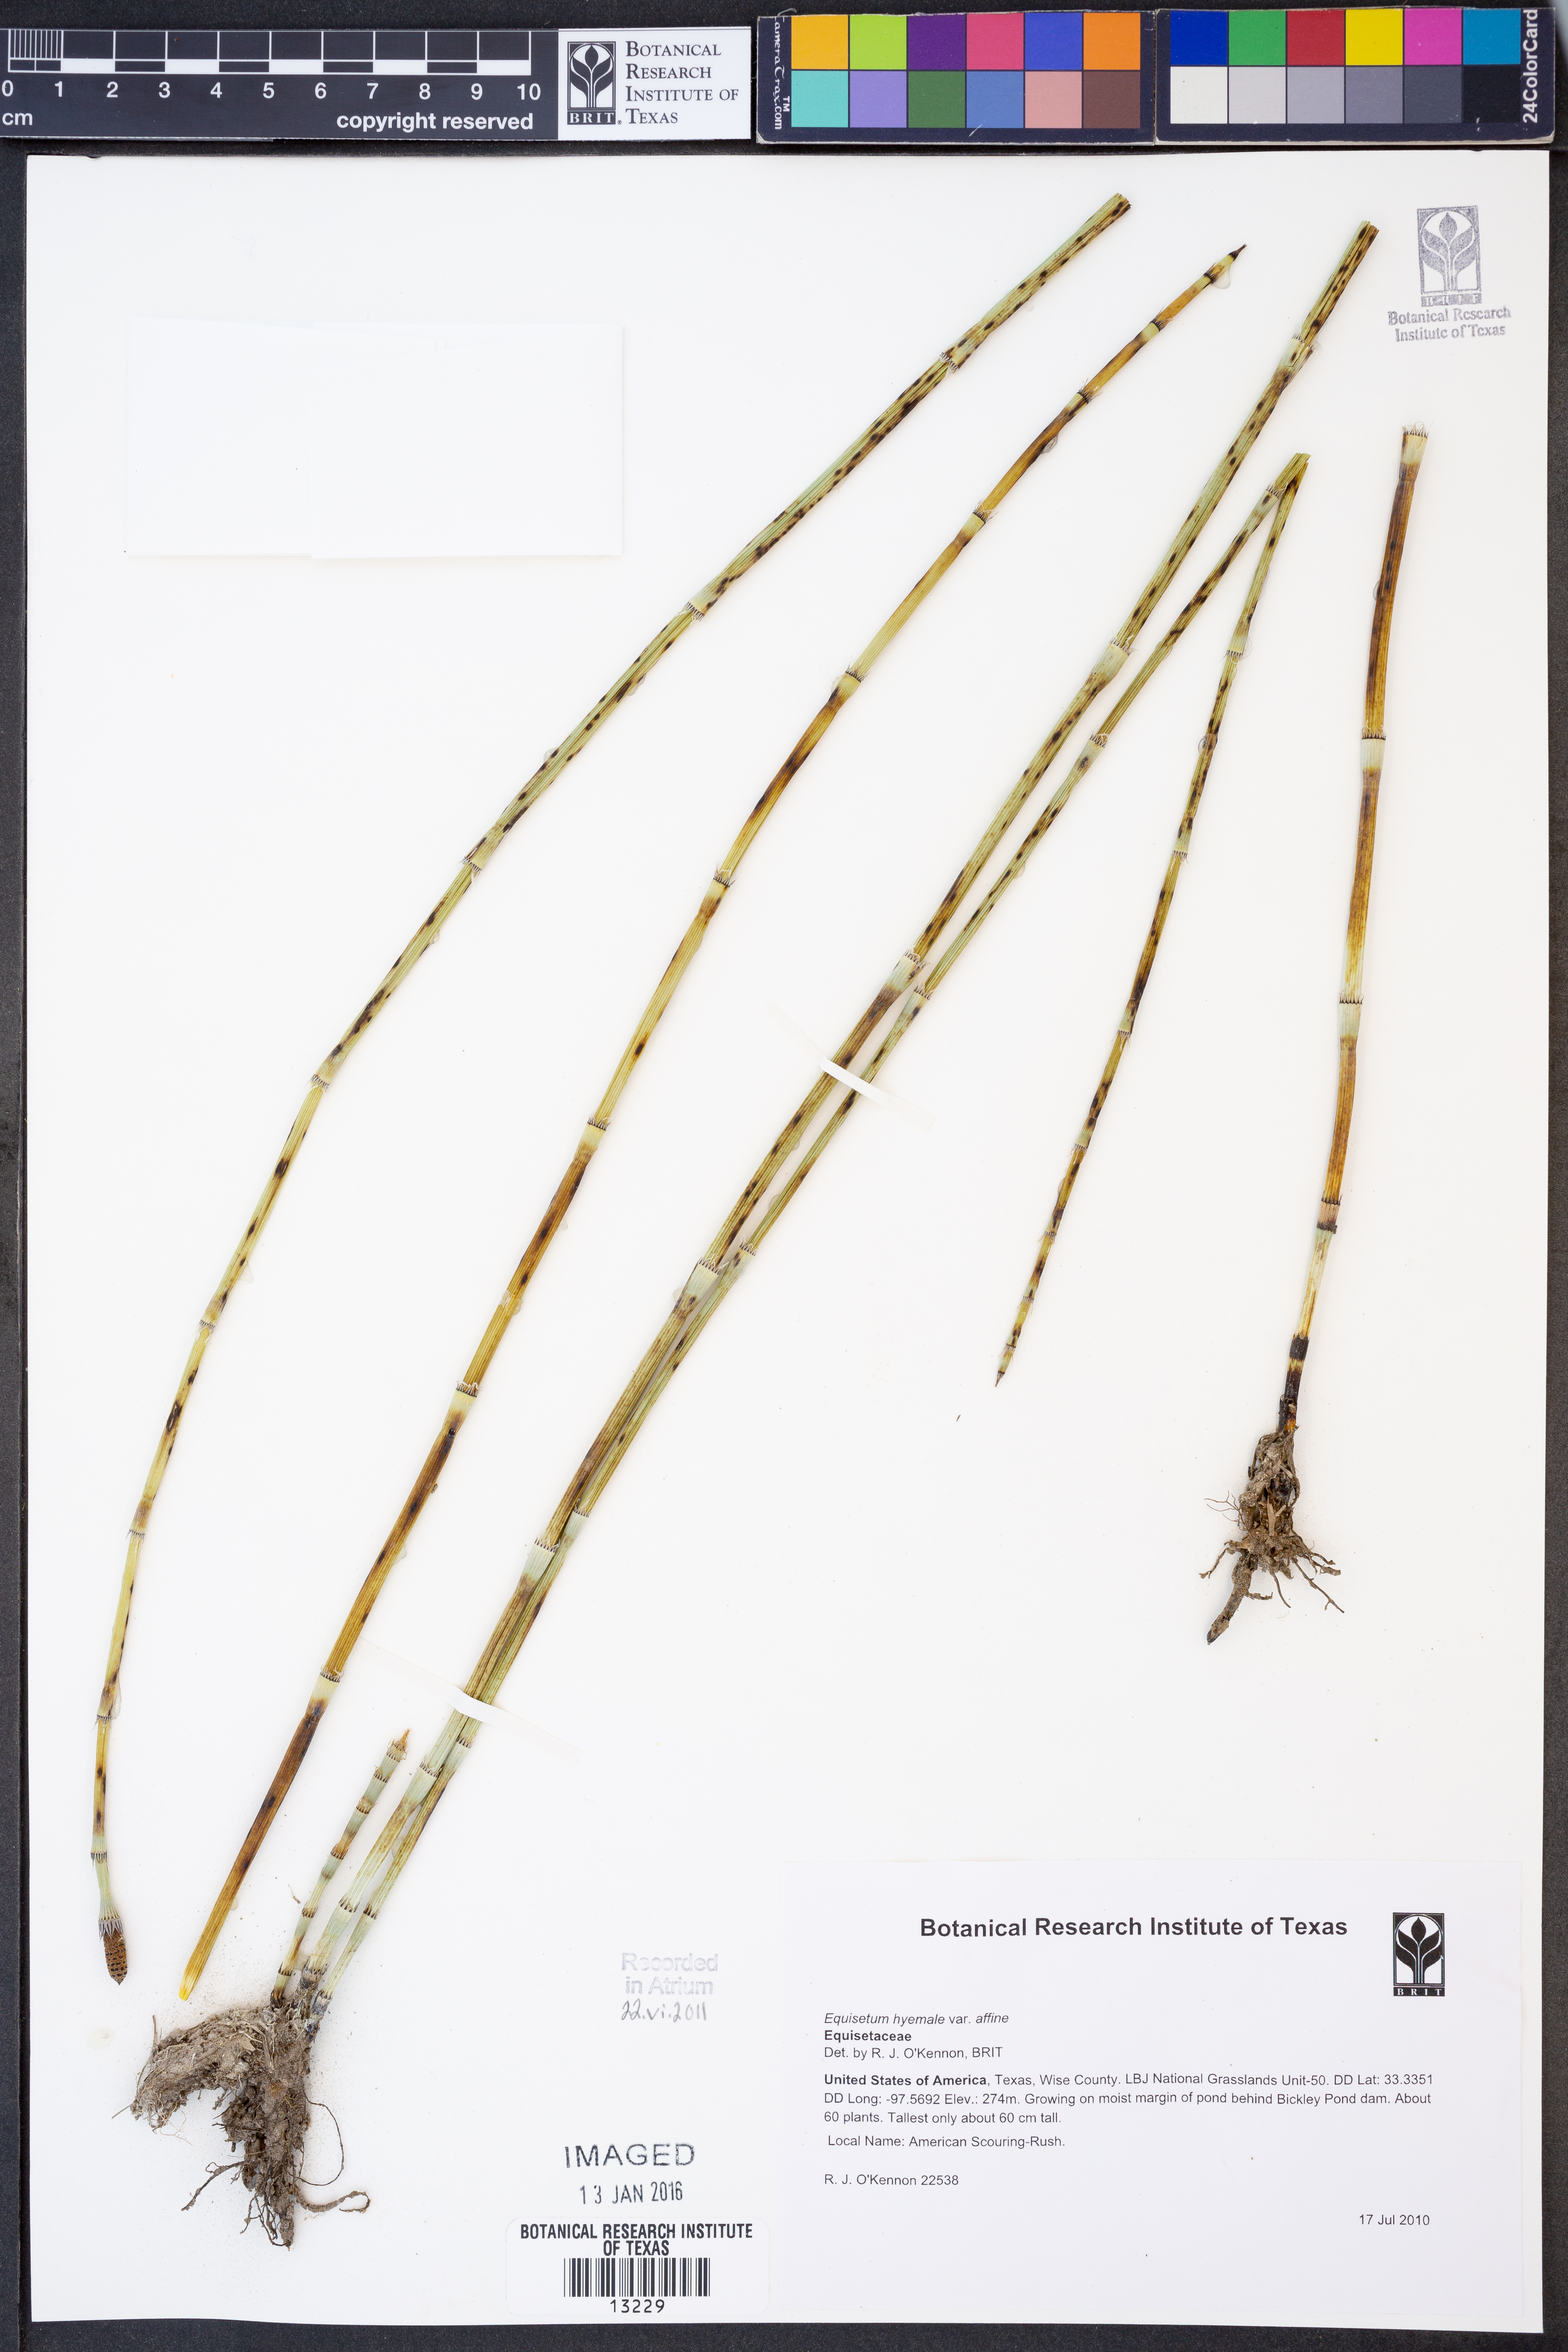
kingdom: Plantae
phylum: Tracheophyta
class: Polypodiopsida
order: Equisetales
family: Equisetaceae
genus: Equisetum
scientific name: Equisetum praealtum
